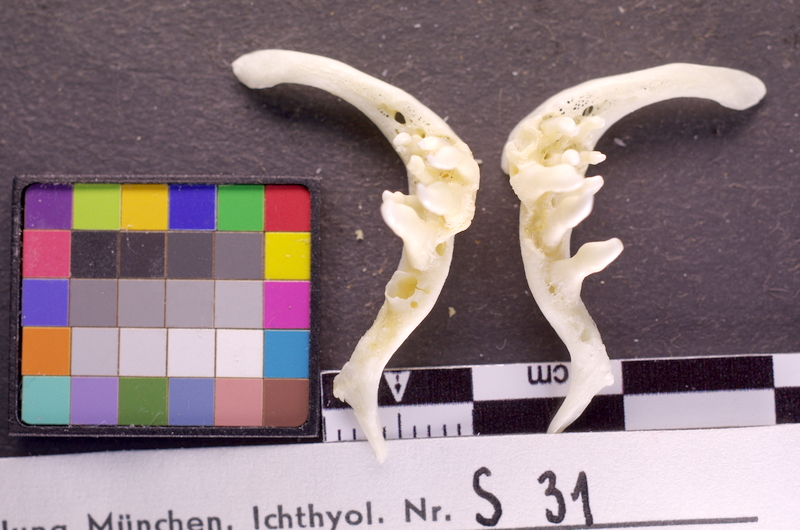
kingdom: Animalia
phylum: Chordata
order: Cypriniformes
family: Cyprinidae
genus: Barbus
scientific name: Barbus barbus
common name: Barbel
